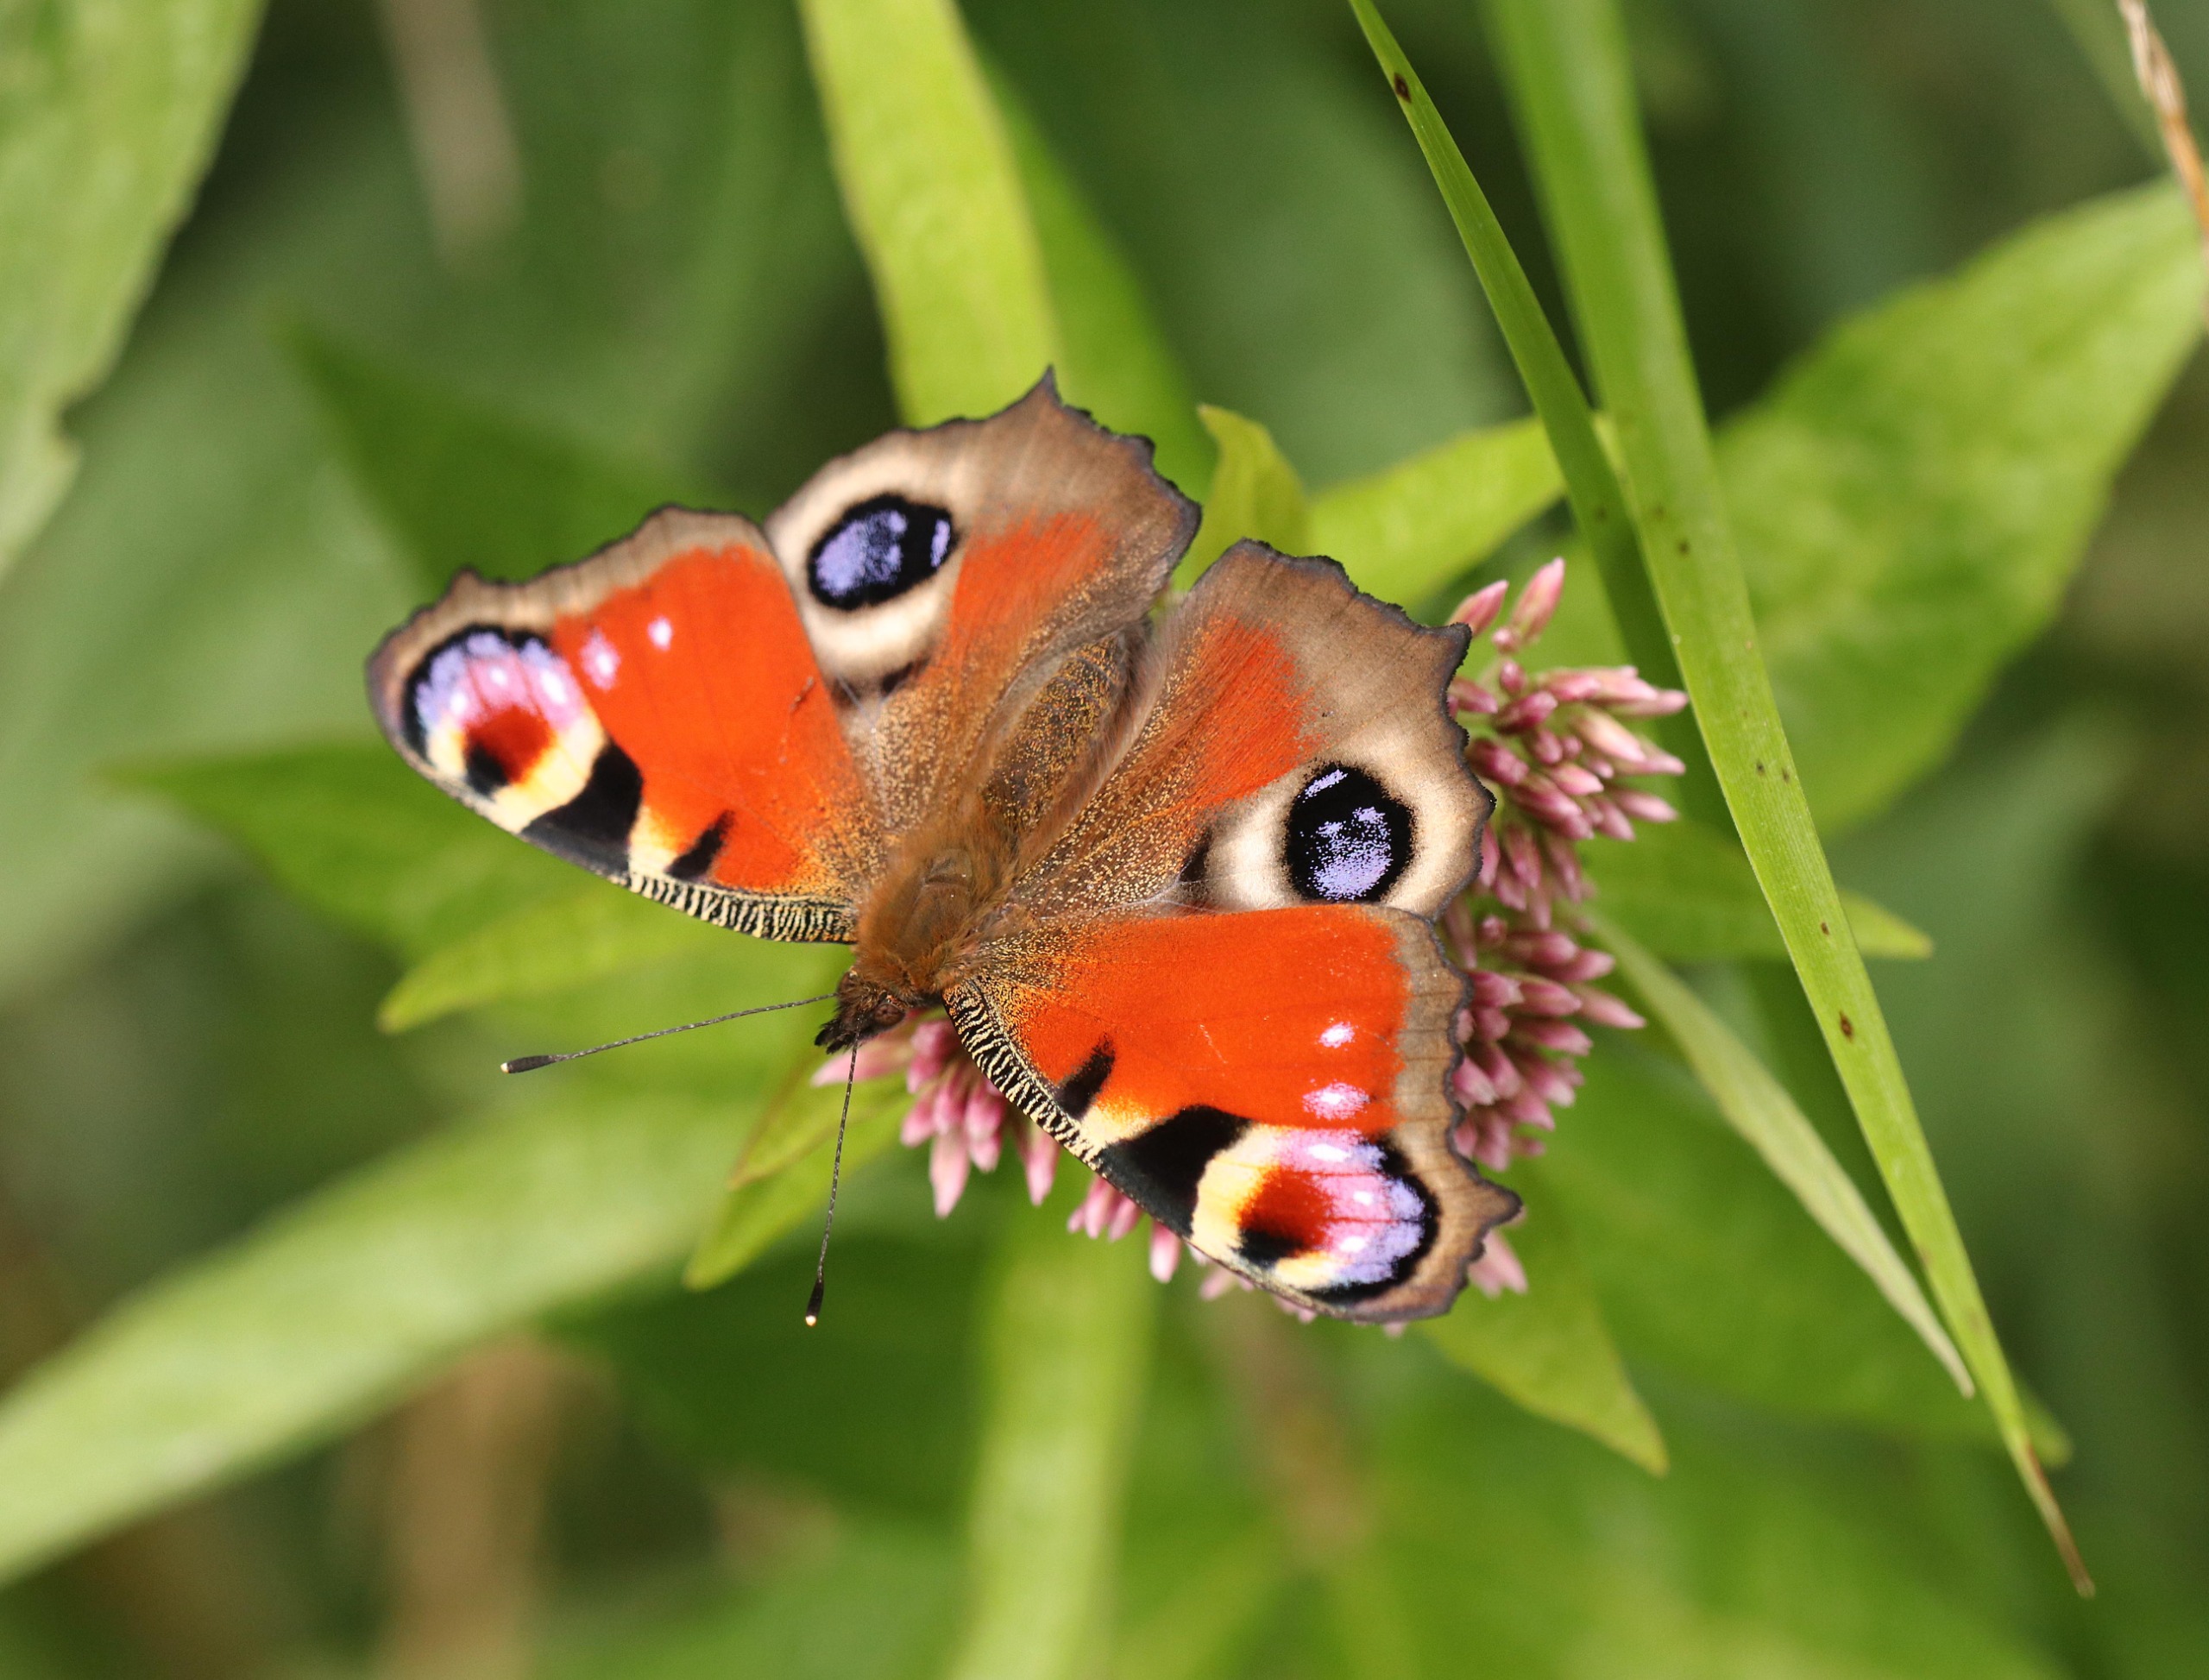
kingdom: Animalia
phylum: Arthropoda
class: Insecta
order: Lepidoptera
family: Nymphalidae
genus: Aglais
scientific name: Aglais io
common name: Dagpåfugleøje
